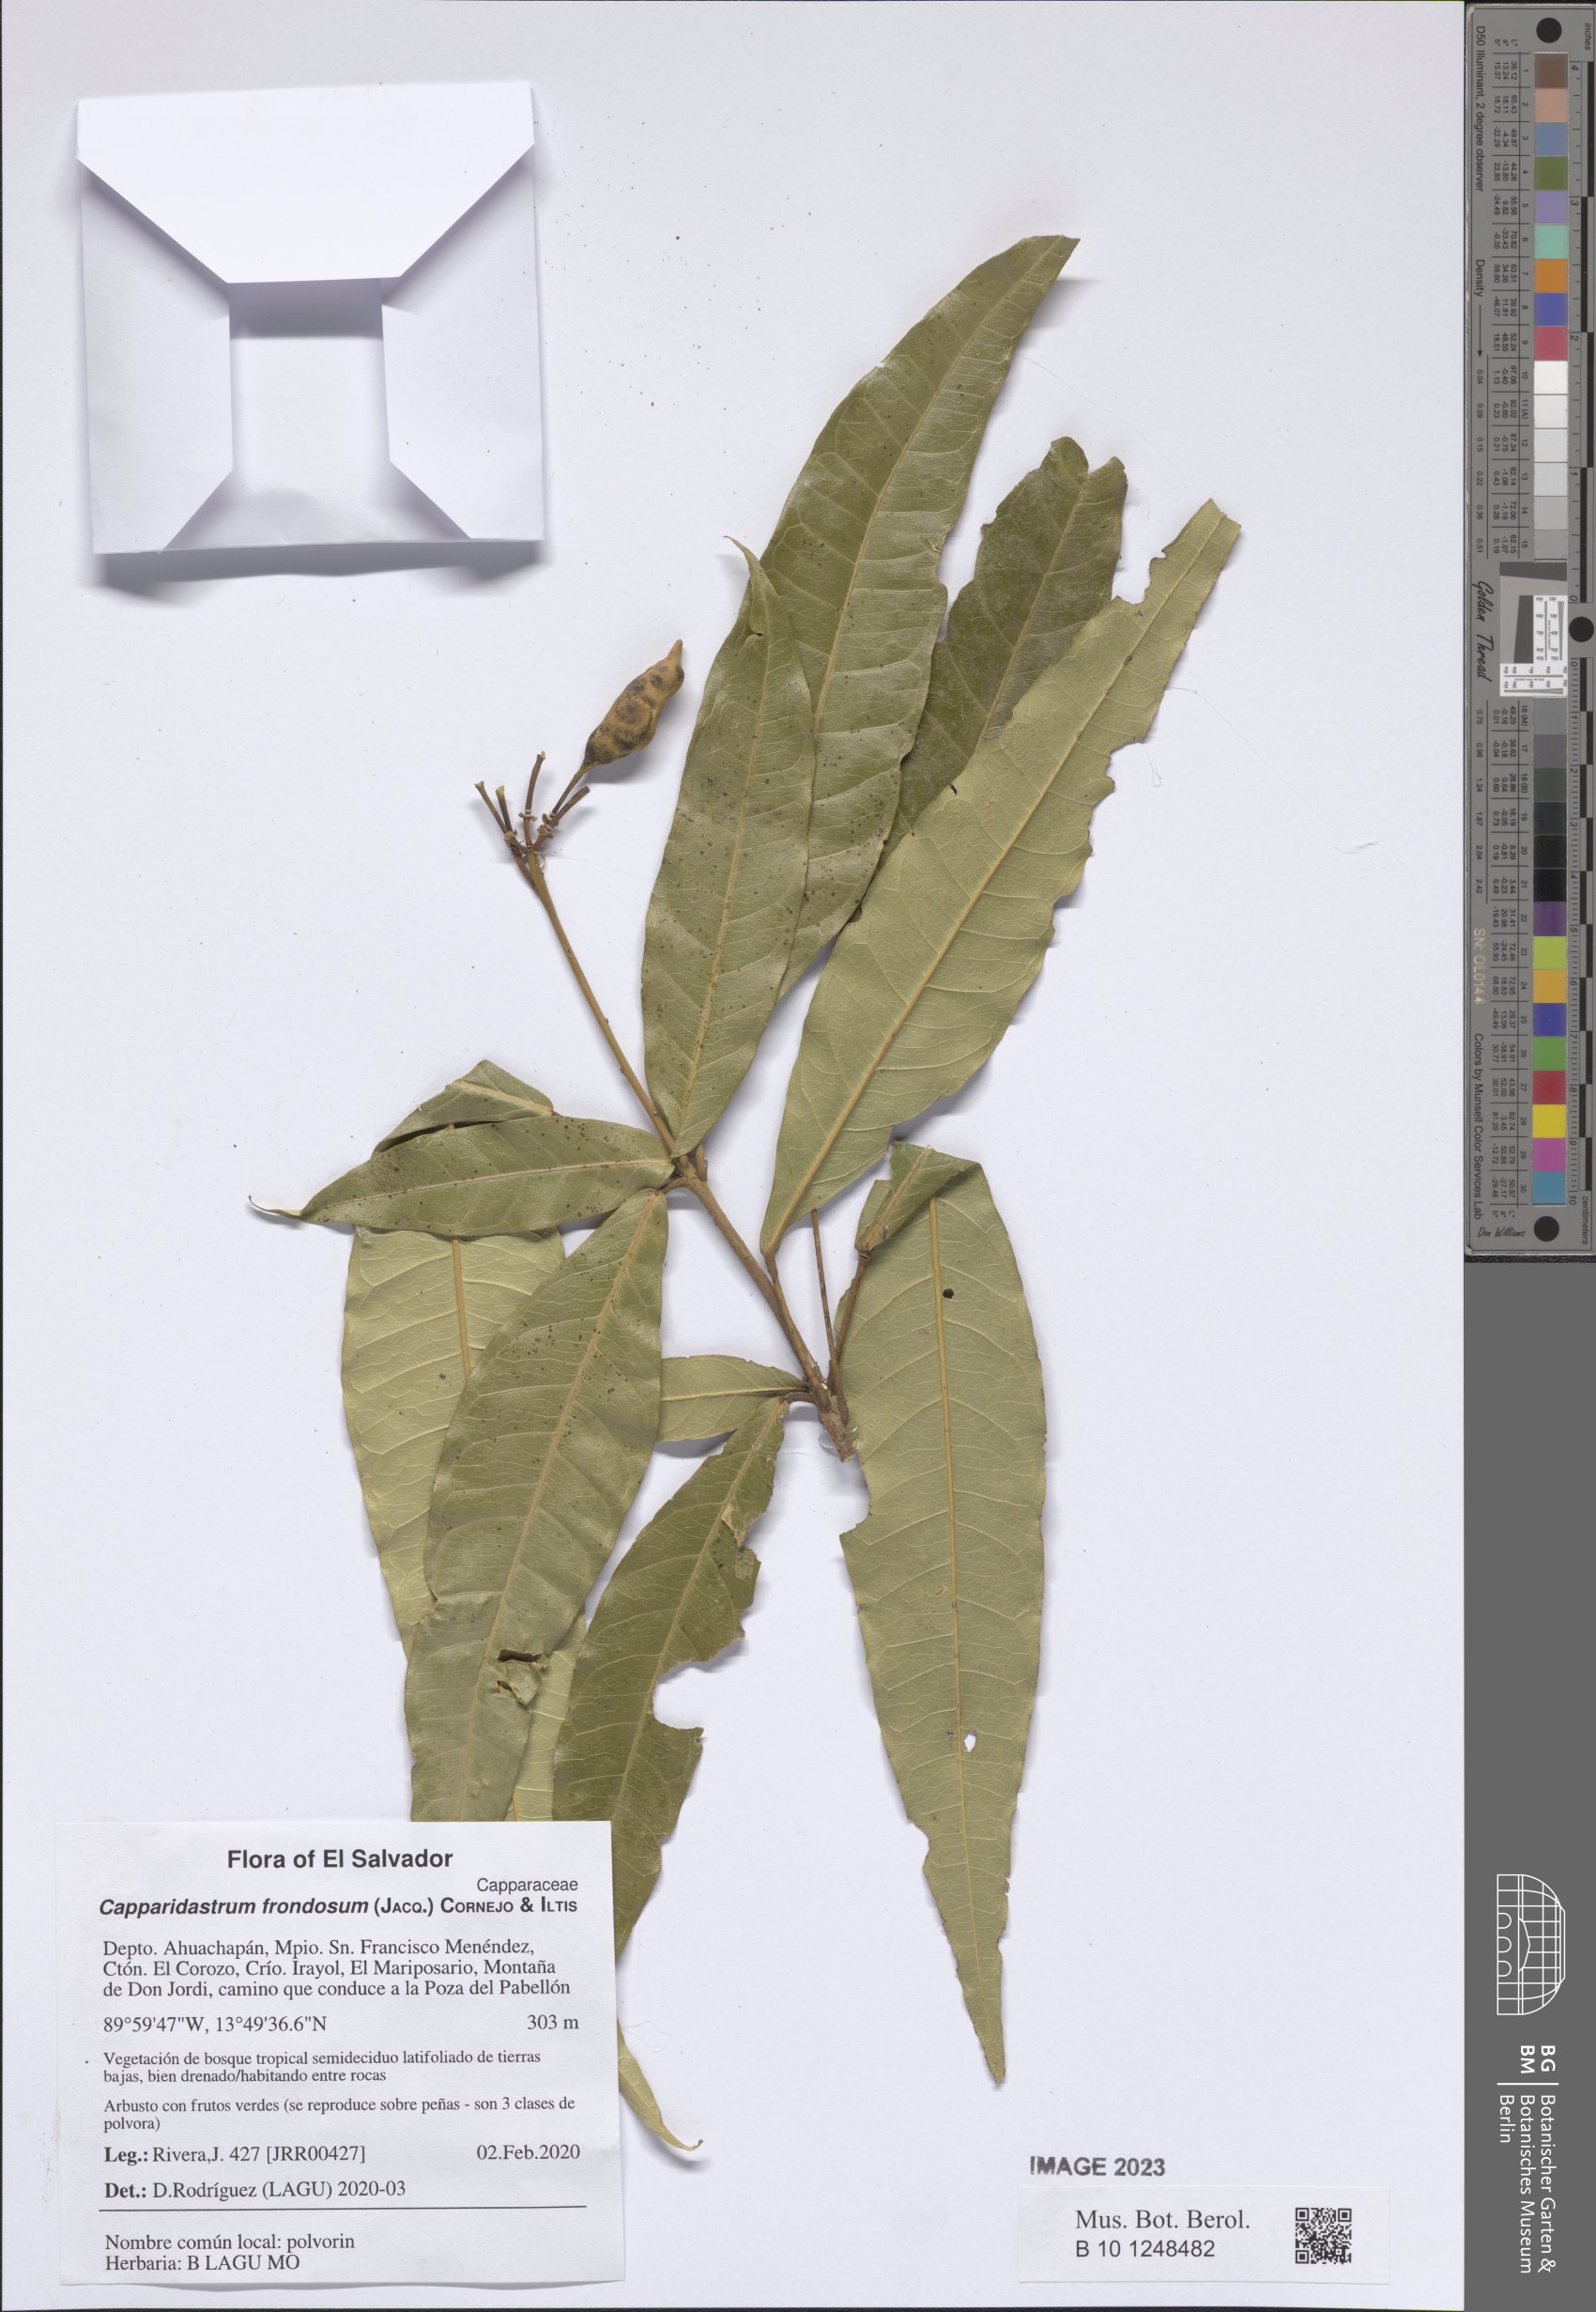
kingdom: Plantae
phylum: Tracheophyta
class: Magnoliopsida
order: Brassicales
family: Capparaceae
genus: Capparidastrum
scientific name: Capparidastrum frondosum
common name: Church blossom
